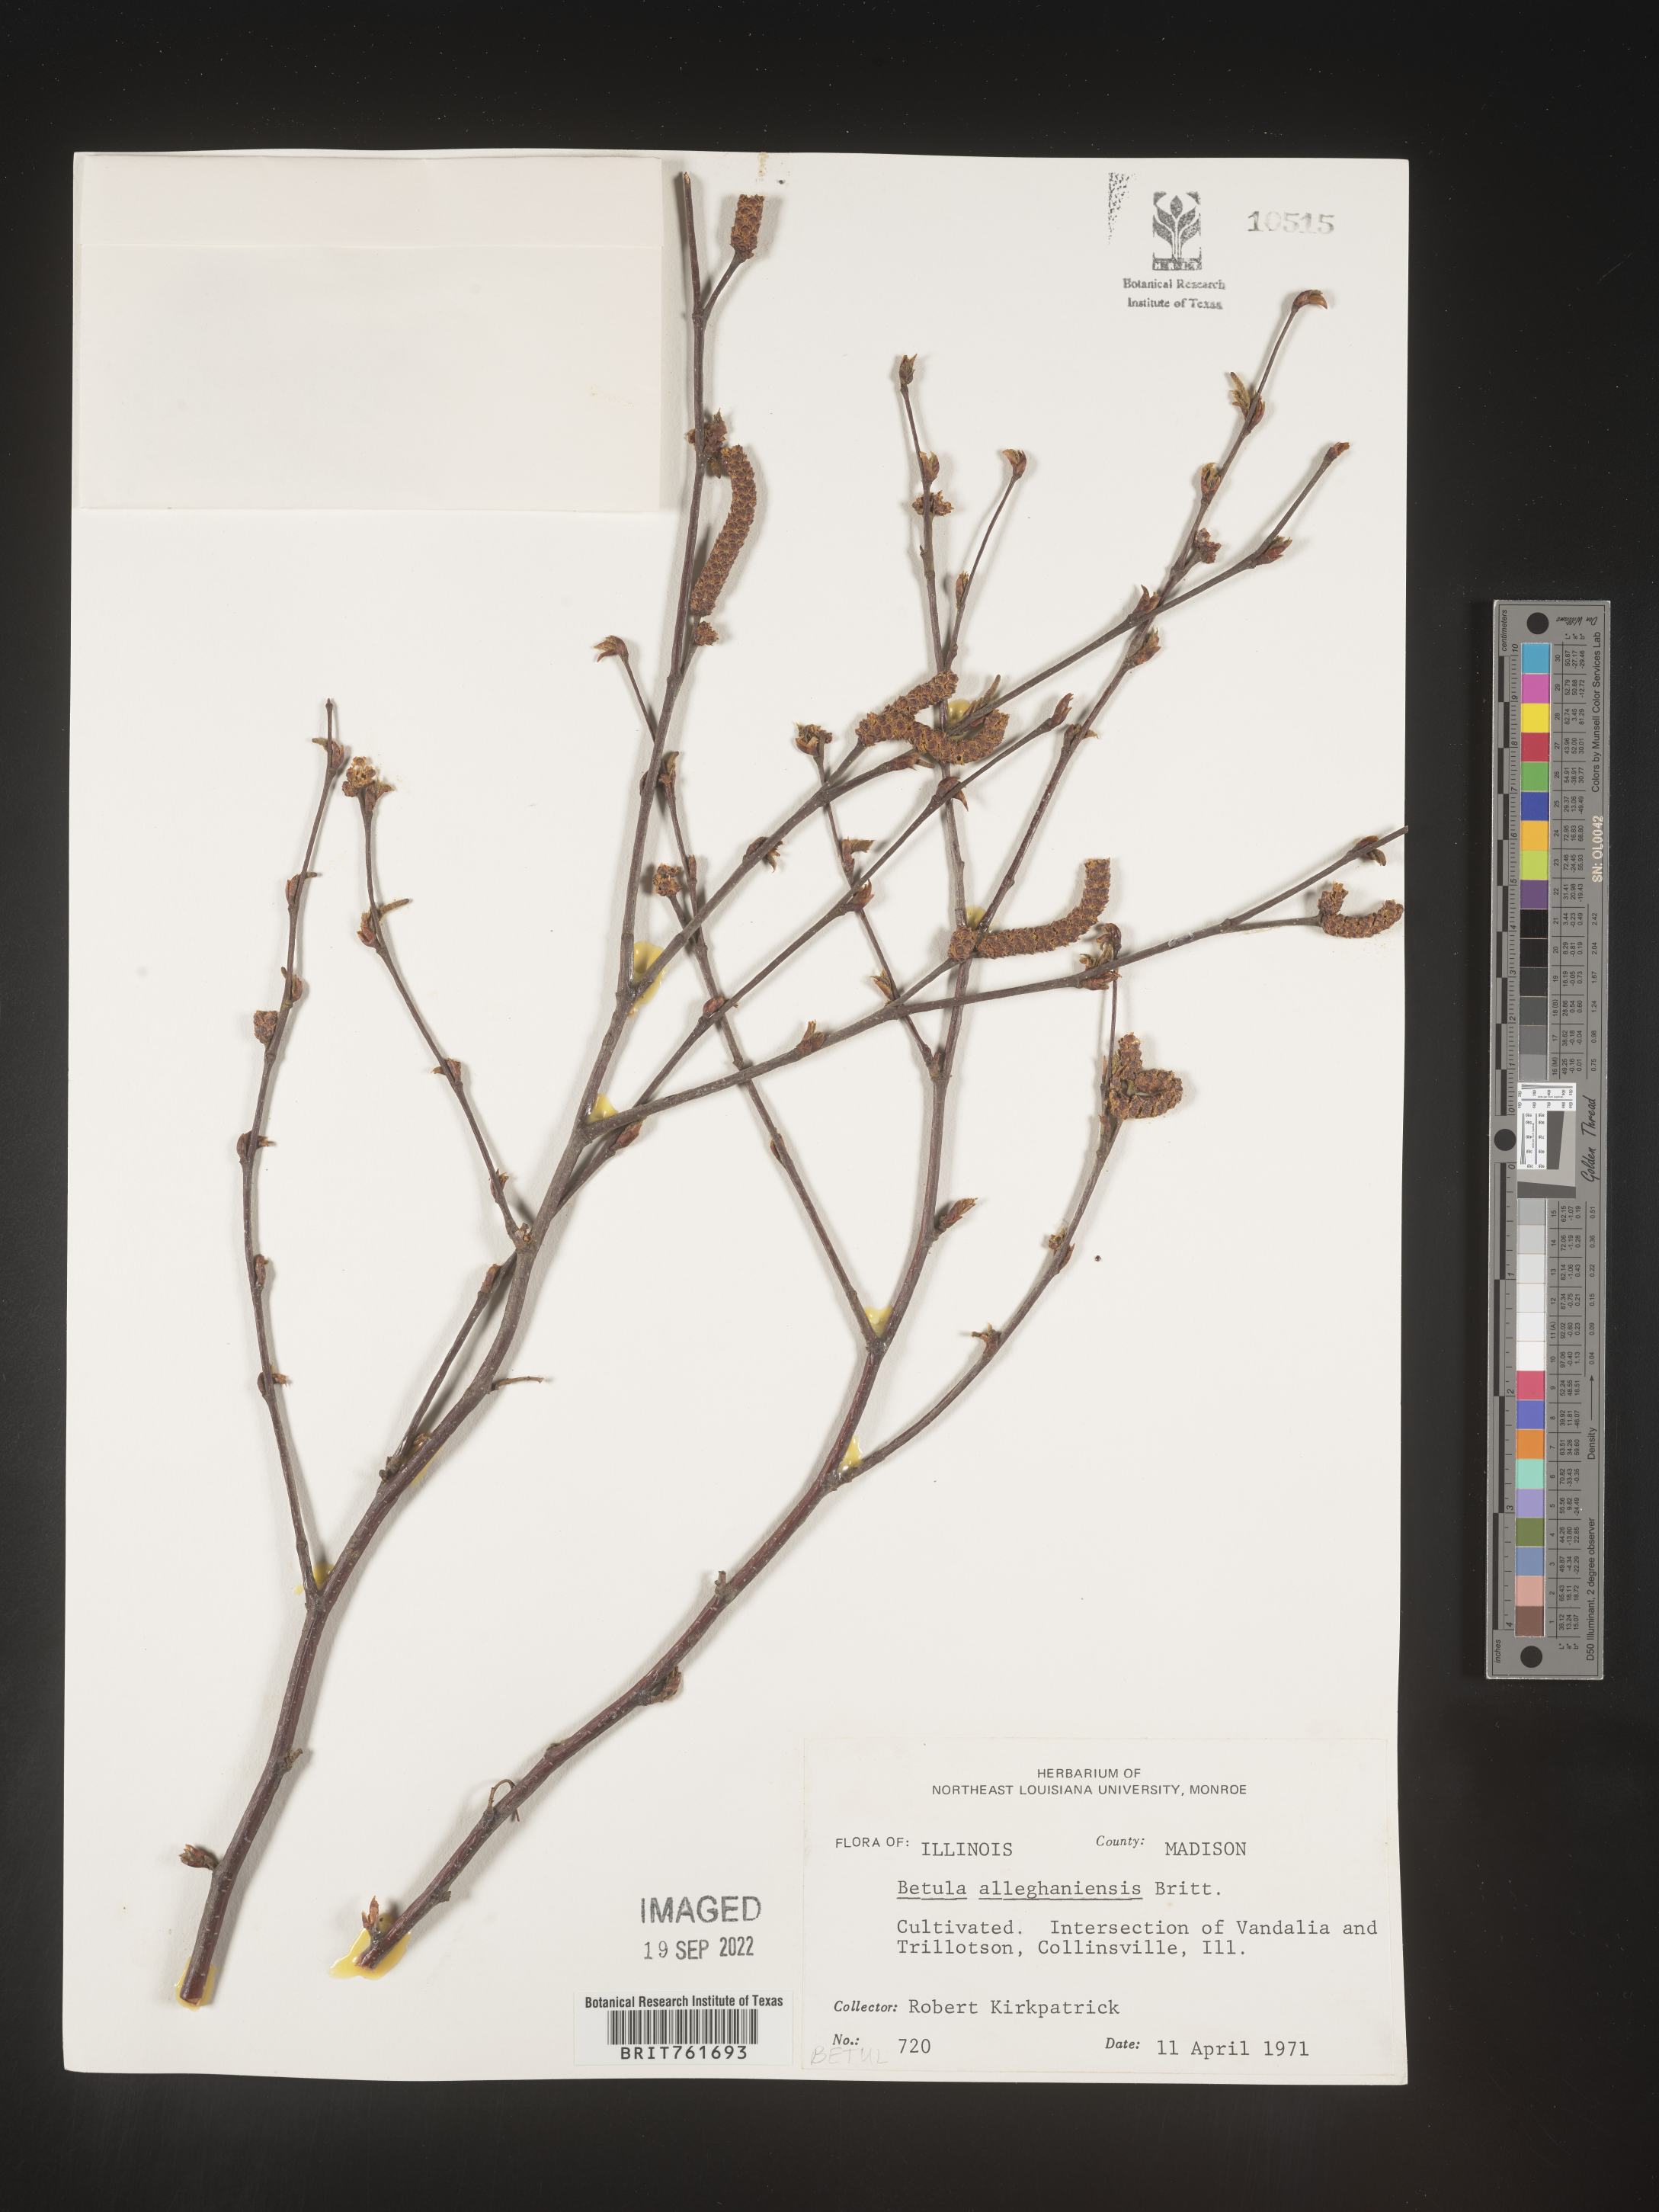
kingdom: Plantae
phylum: Tracheophyta
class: Magnoliopsida
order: Fagales
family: Betulaceae
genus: Betula
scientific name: Betula alleghaniensis
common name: Yellow birch
